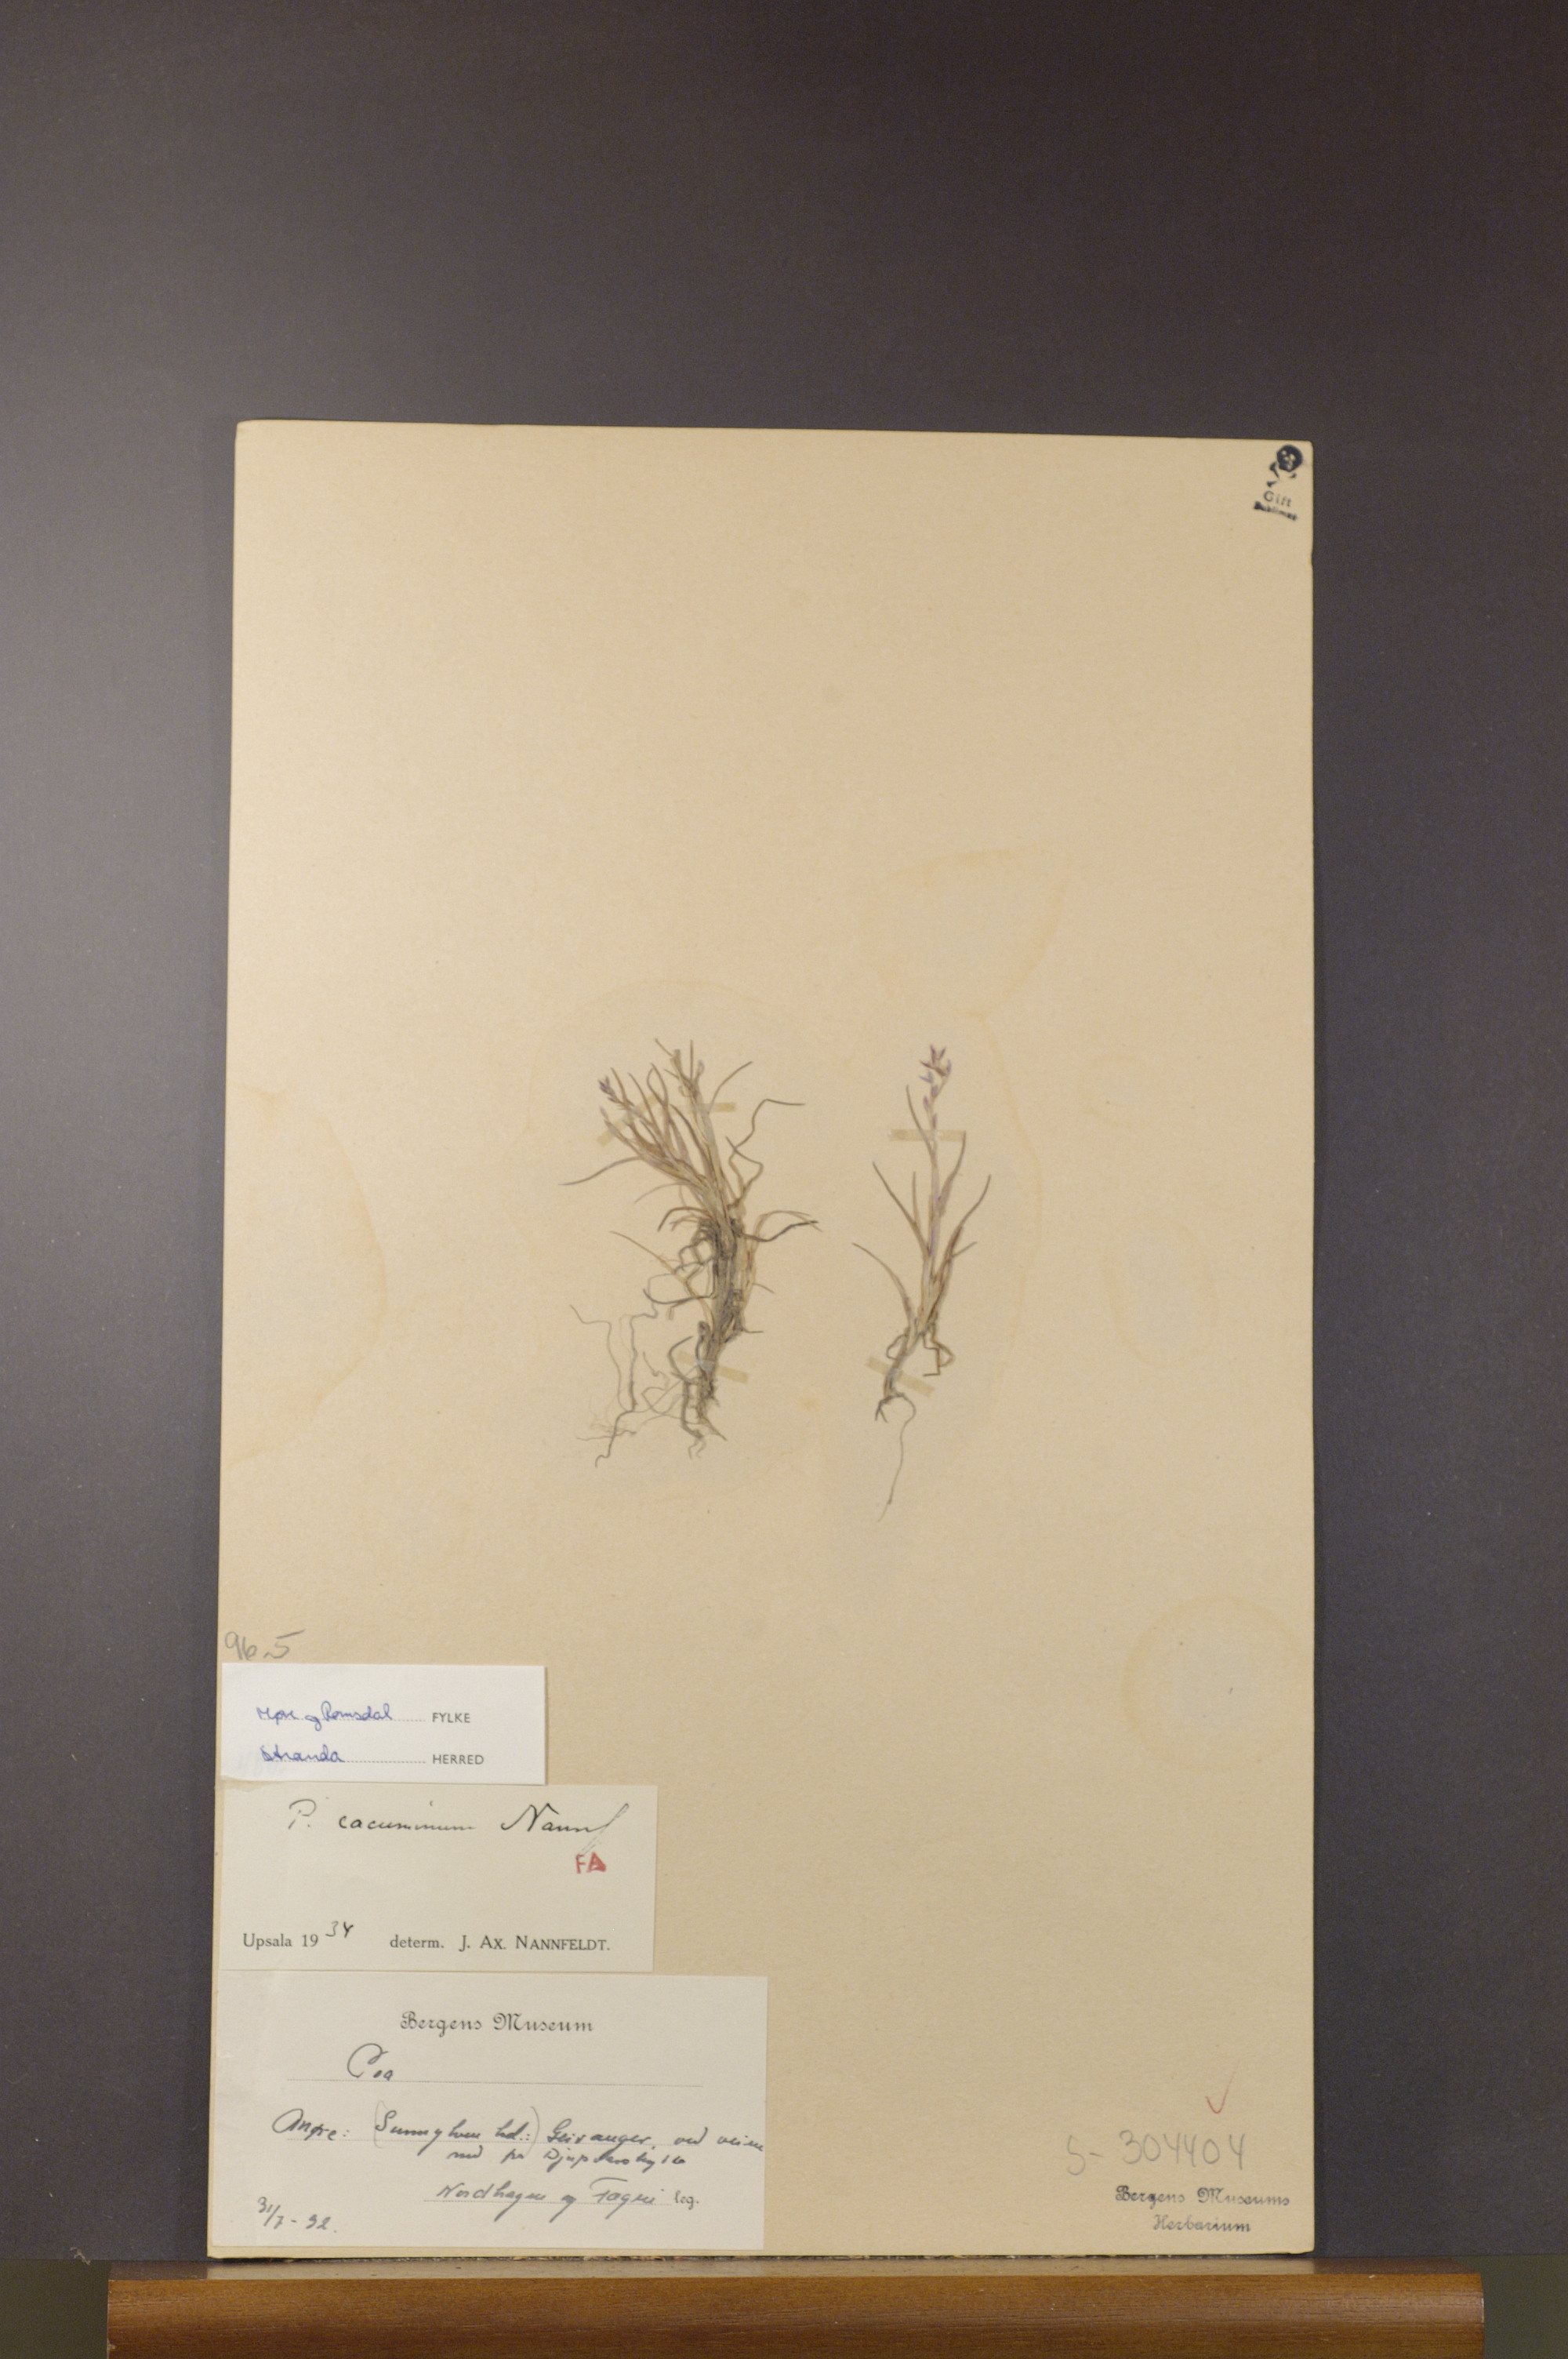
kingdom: Plantae
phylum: Tracheophyta
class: Liliopsida
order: Poales
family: Poaceae
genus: Poa
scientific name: Poa flexuosa
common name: Wavy meadow-grass
